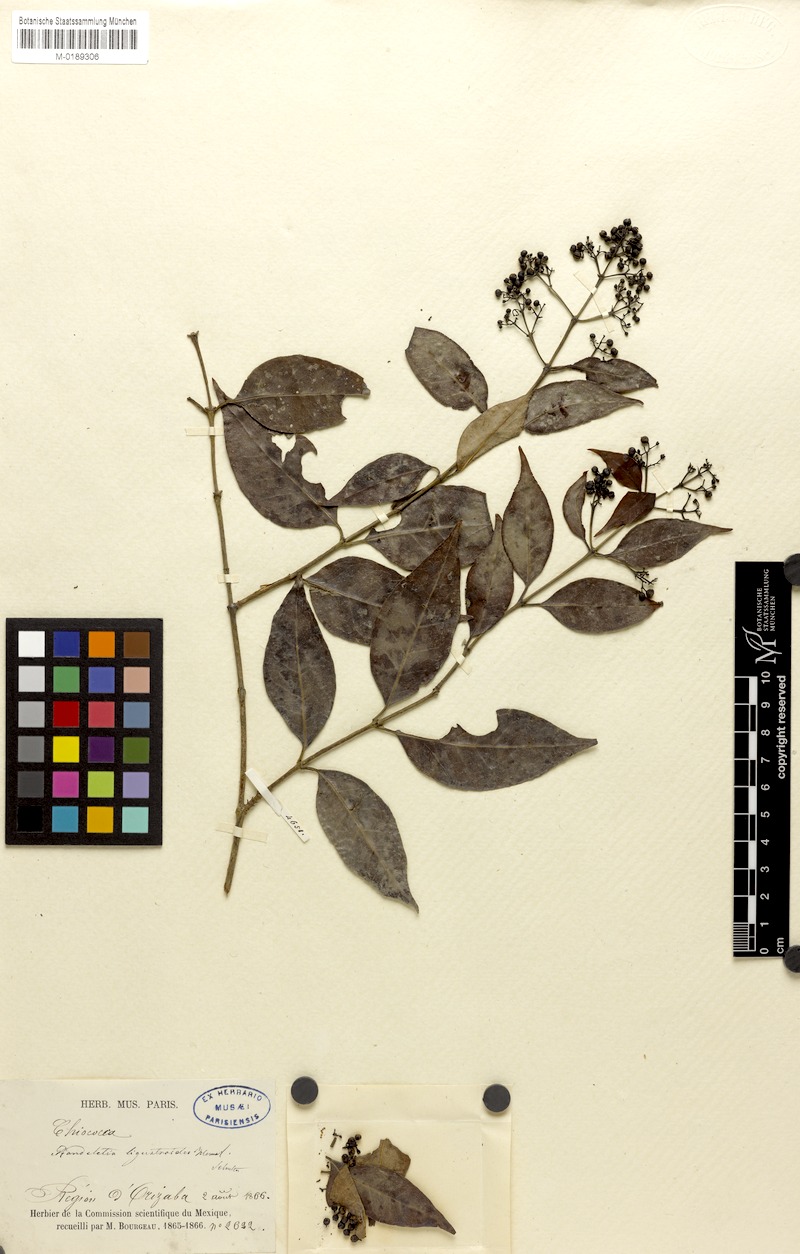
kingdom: Plantae
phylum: Tracheophyta
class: Magnoliopsida
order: Gentianales
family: Rubiaceae
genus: Rogiera
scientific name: Rogiera ligustroides
